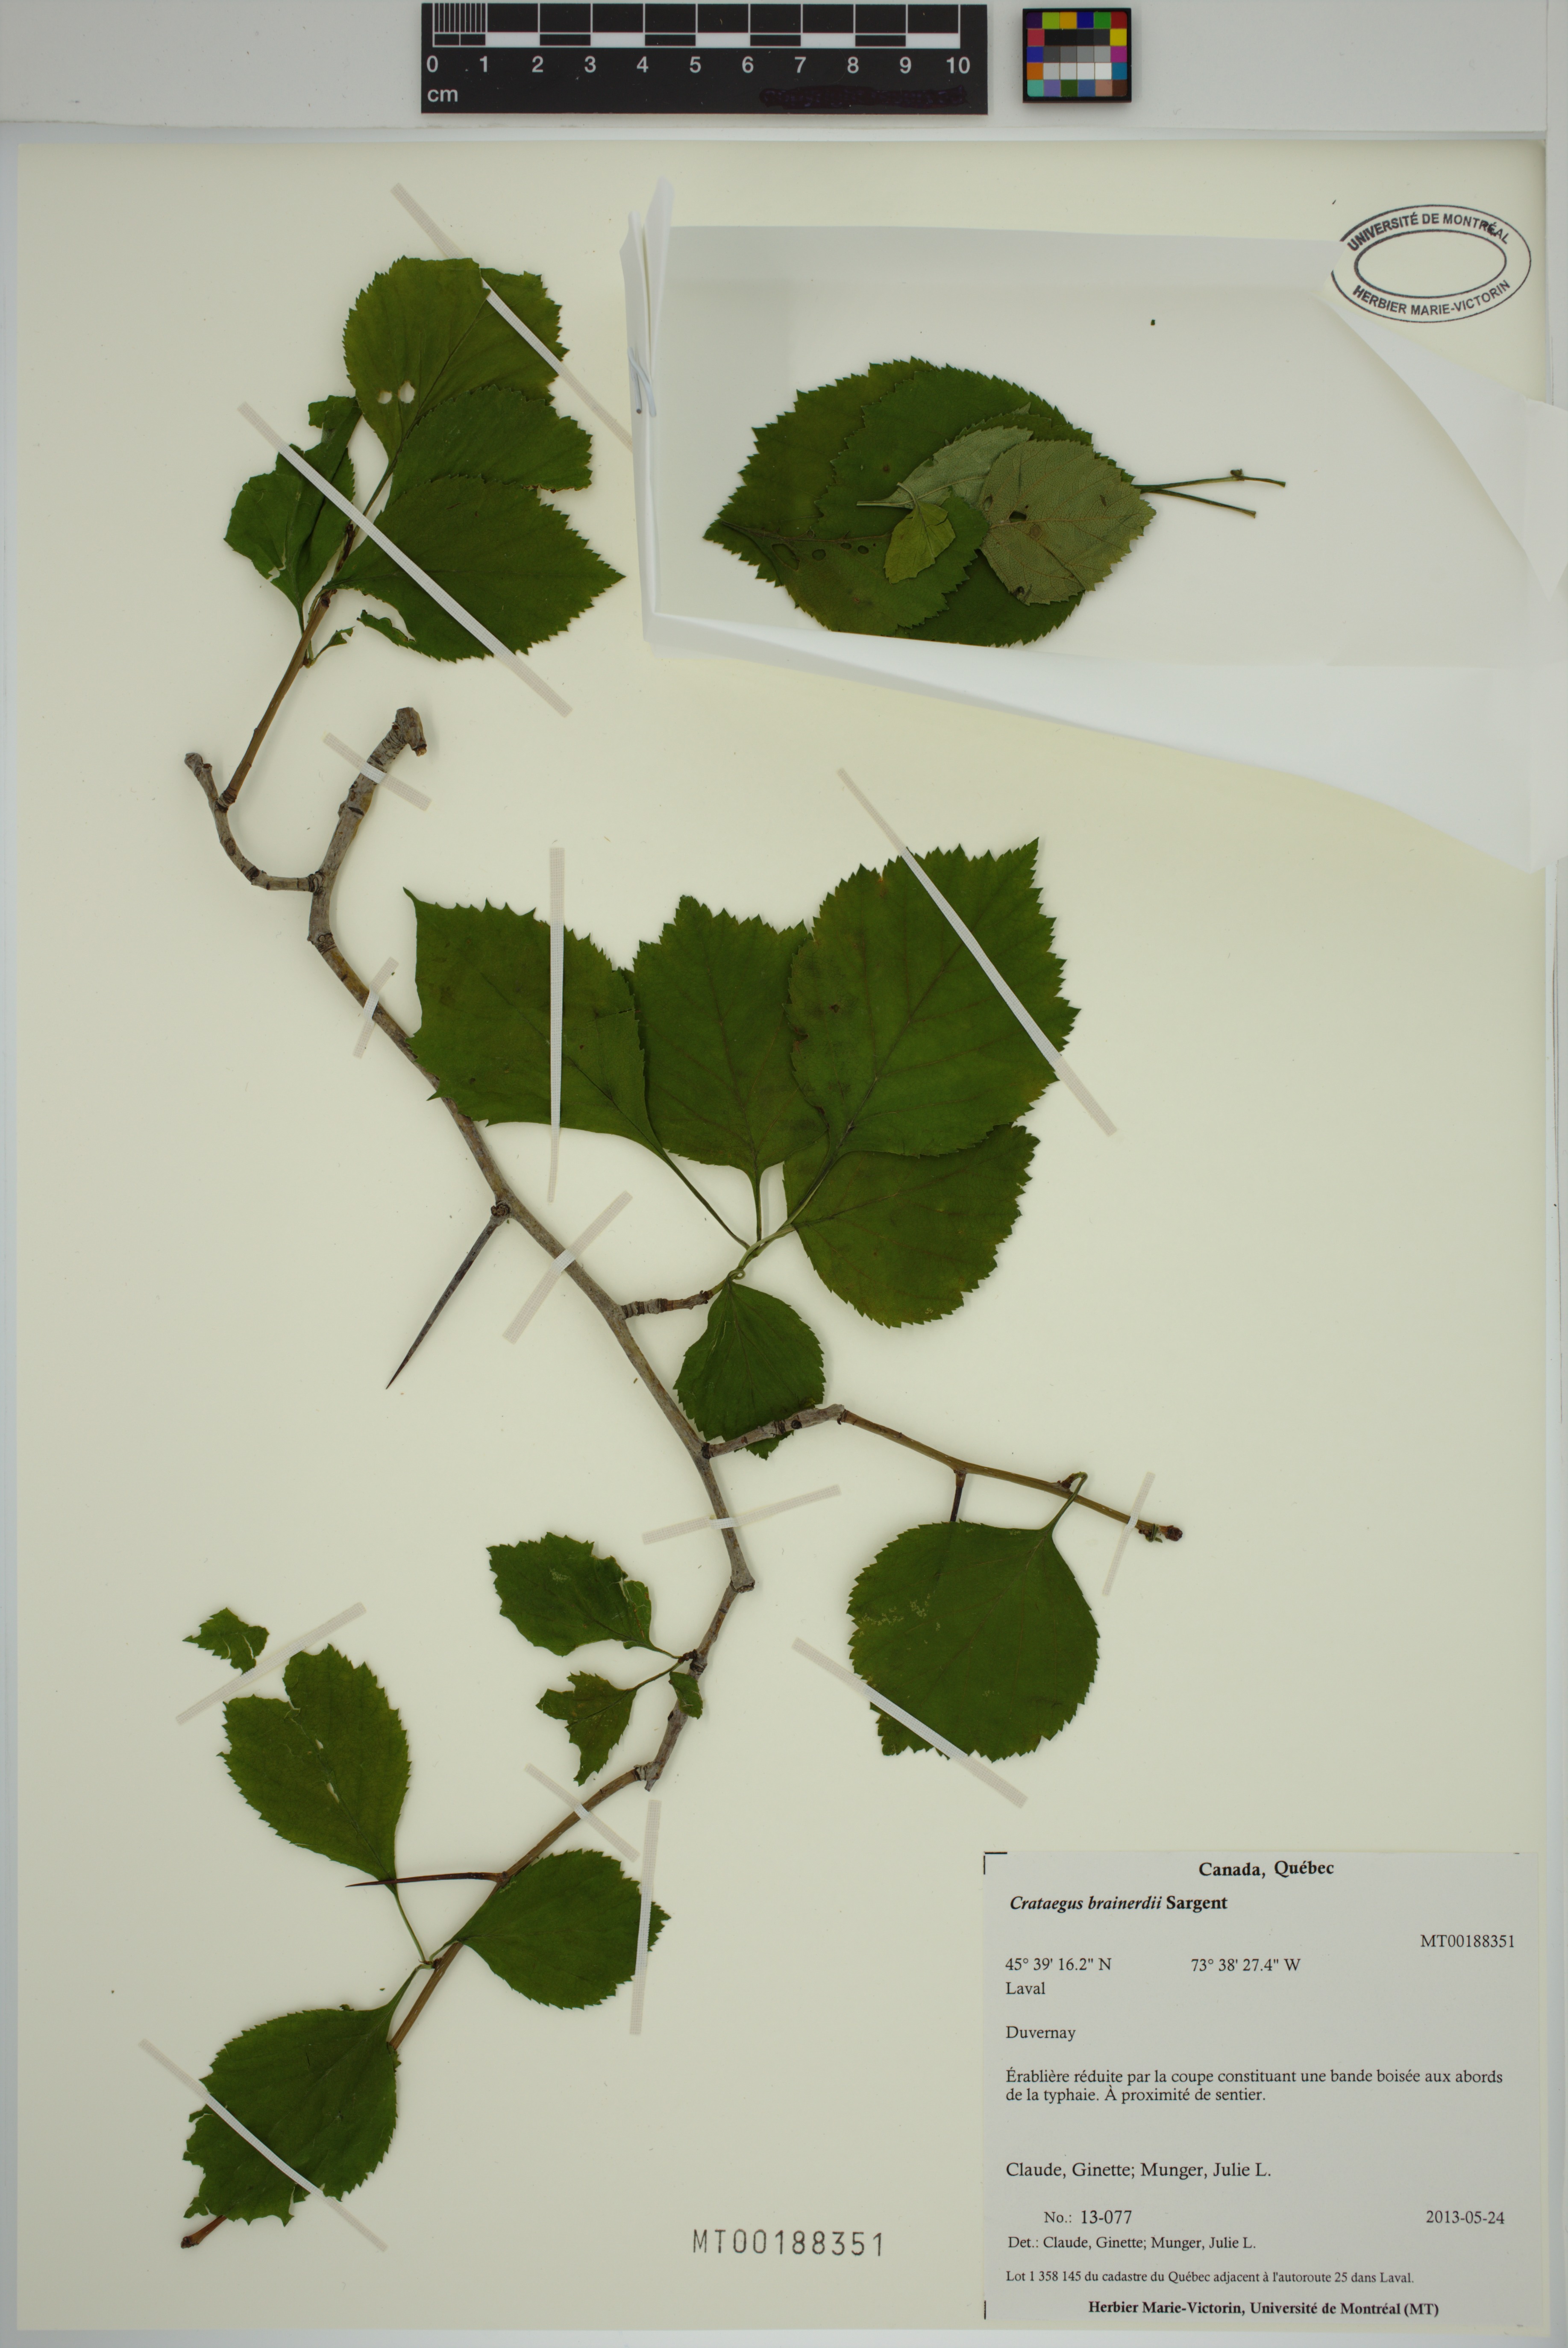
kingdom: Plantae
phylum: Tracheophyta
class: Magnoliopsida
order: Rosales
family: Rosaceae
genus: Crataegus
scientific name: Crataegus suborbiculata
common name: Caughnawaga hawthorn
